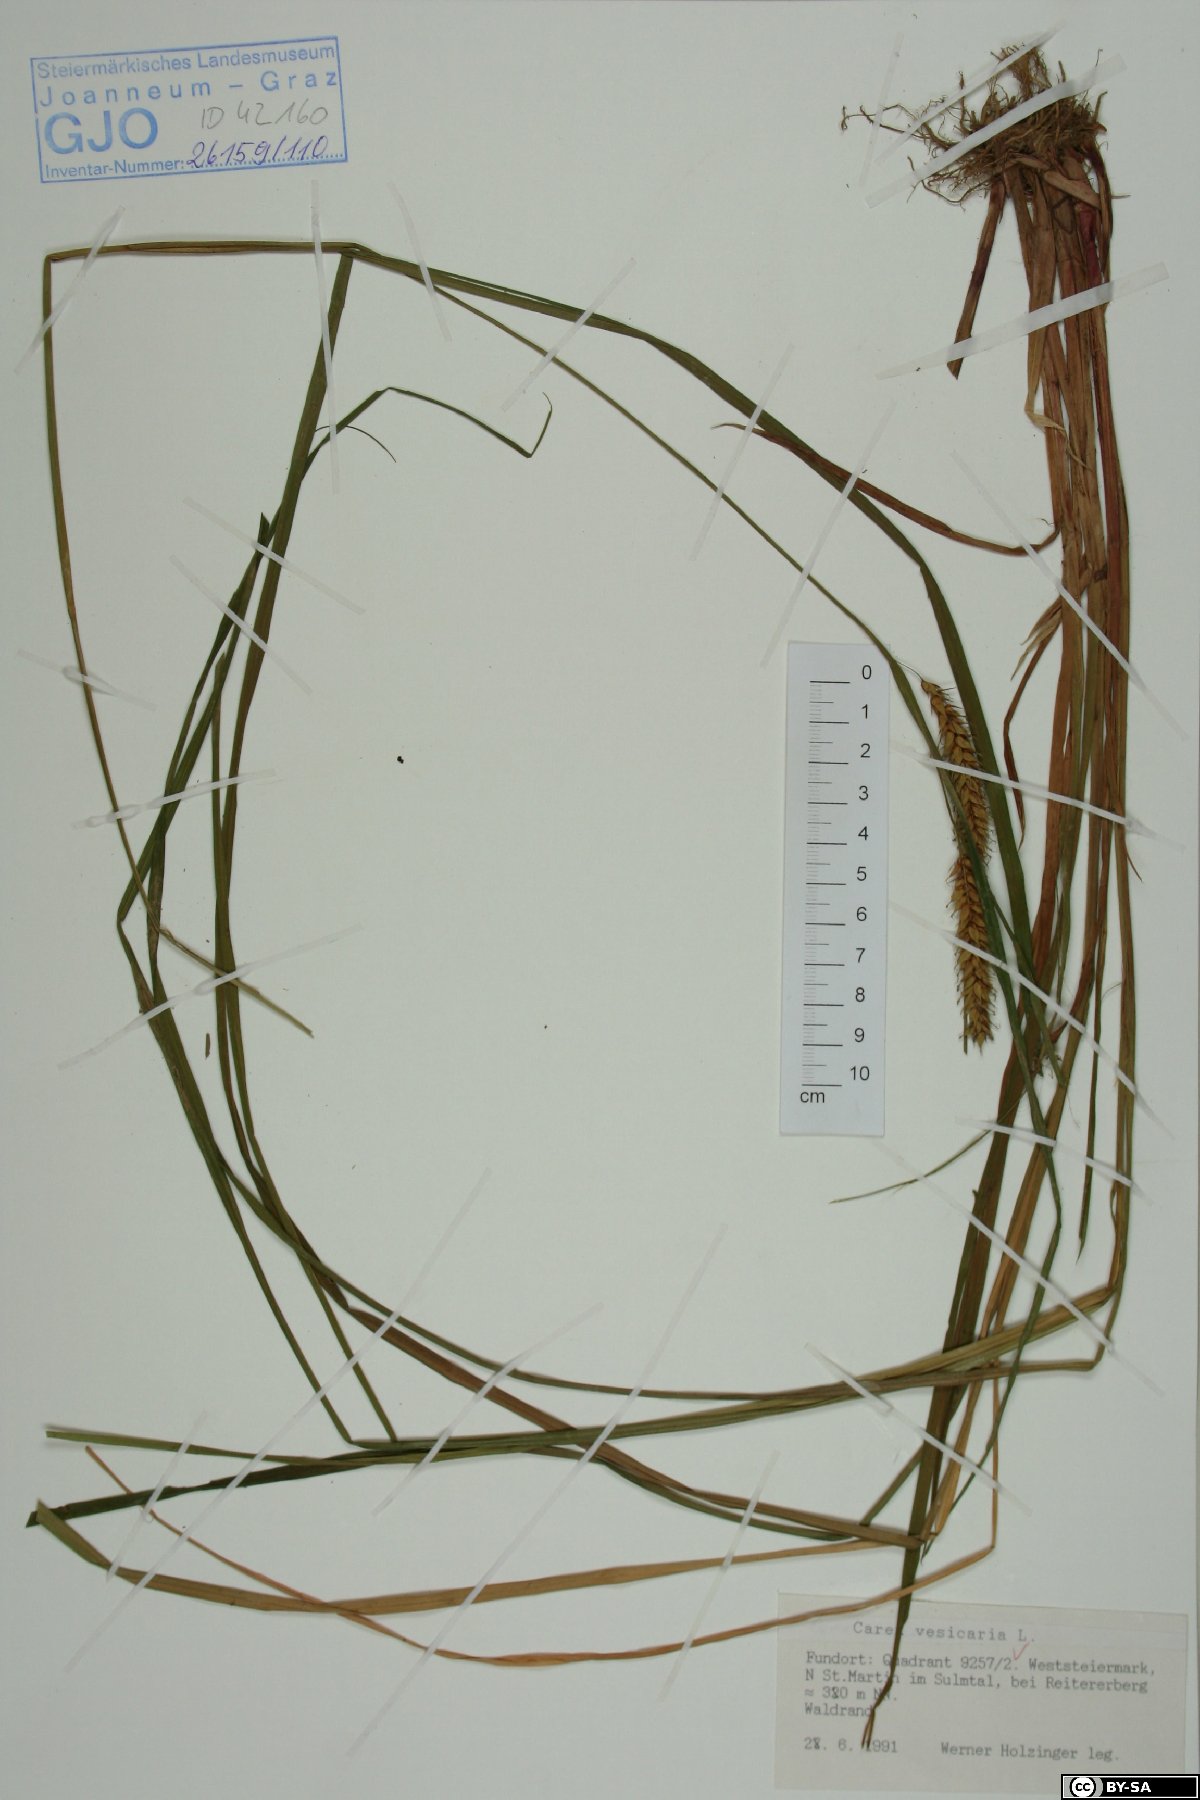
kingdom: Plantae
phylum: Tracheophyta
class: Liliopsida
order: Poales
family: Cyperaceae
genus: Carex
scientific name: Carex vesicaria
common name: Bladder-sedge
